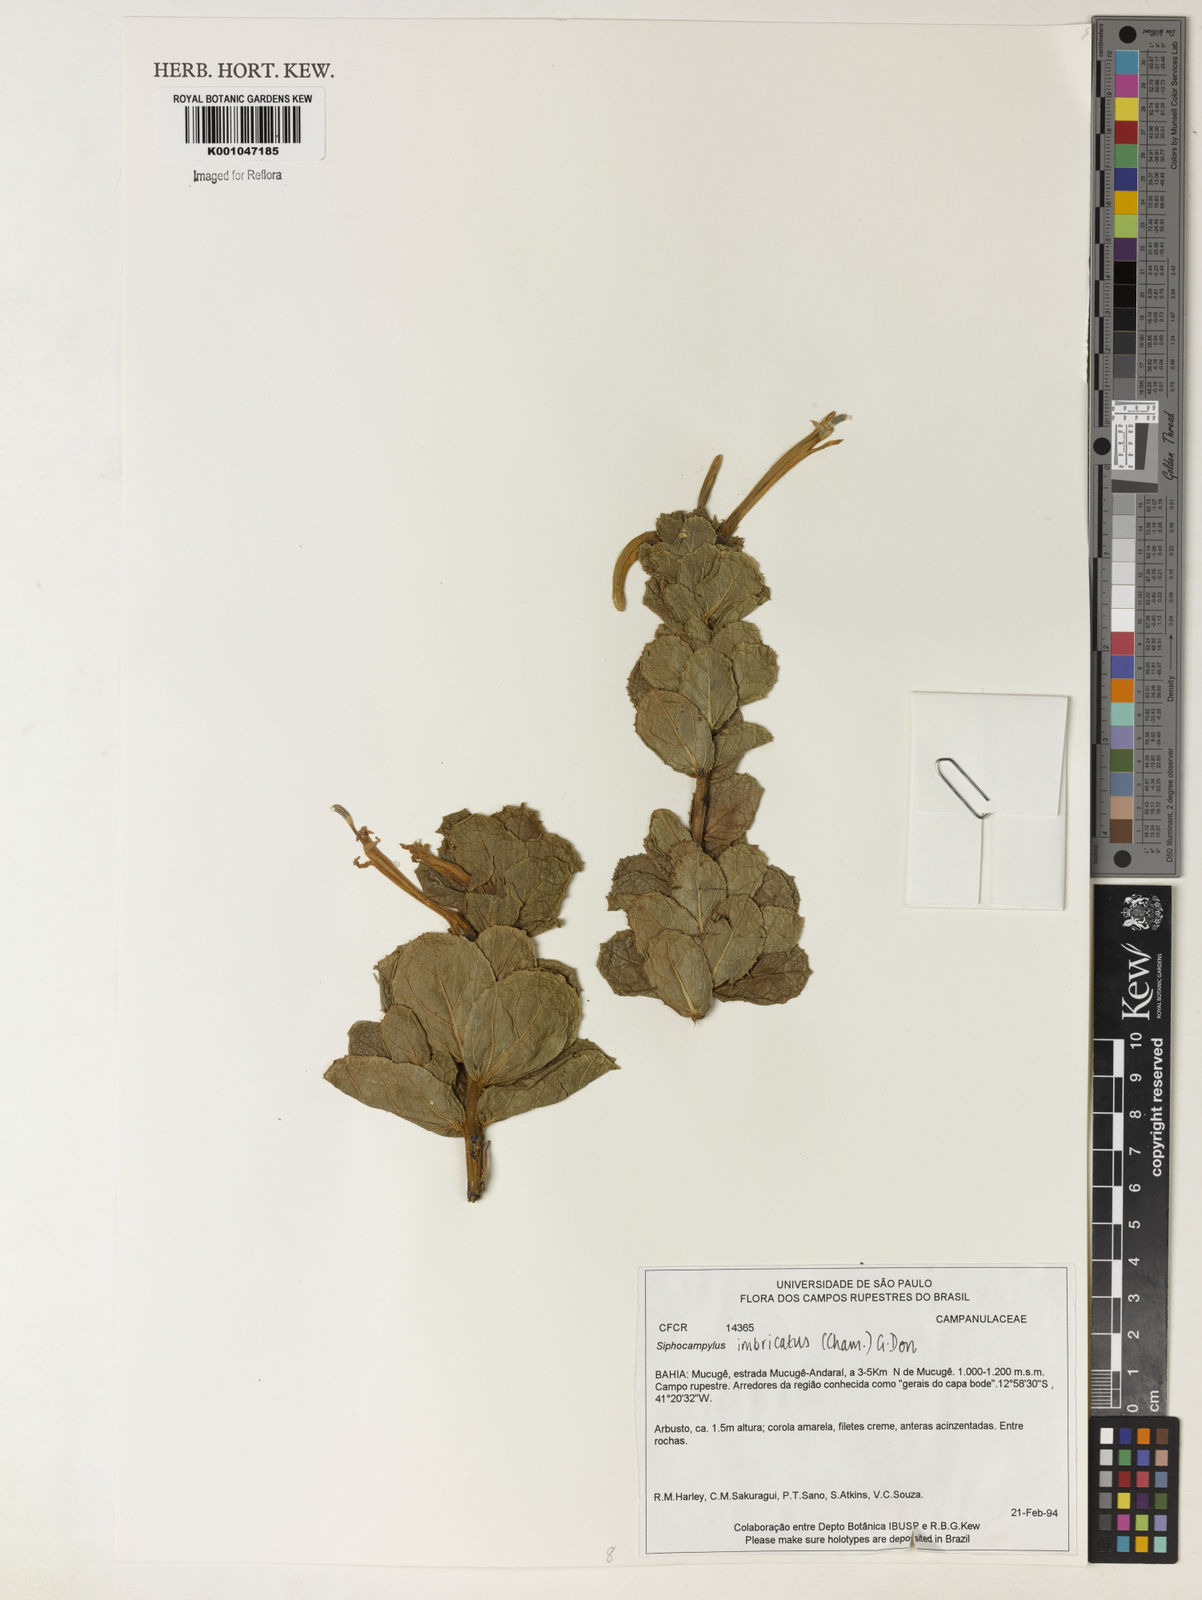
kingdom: Plantae
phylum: Tracheophyta
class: Magnoliopsida
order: Asterales
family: Campanulaceae
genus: Siphocampylus
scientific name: Siphocampylus imbricatus
